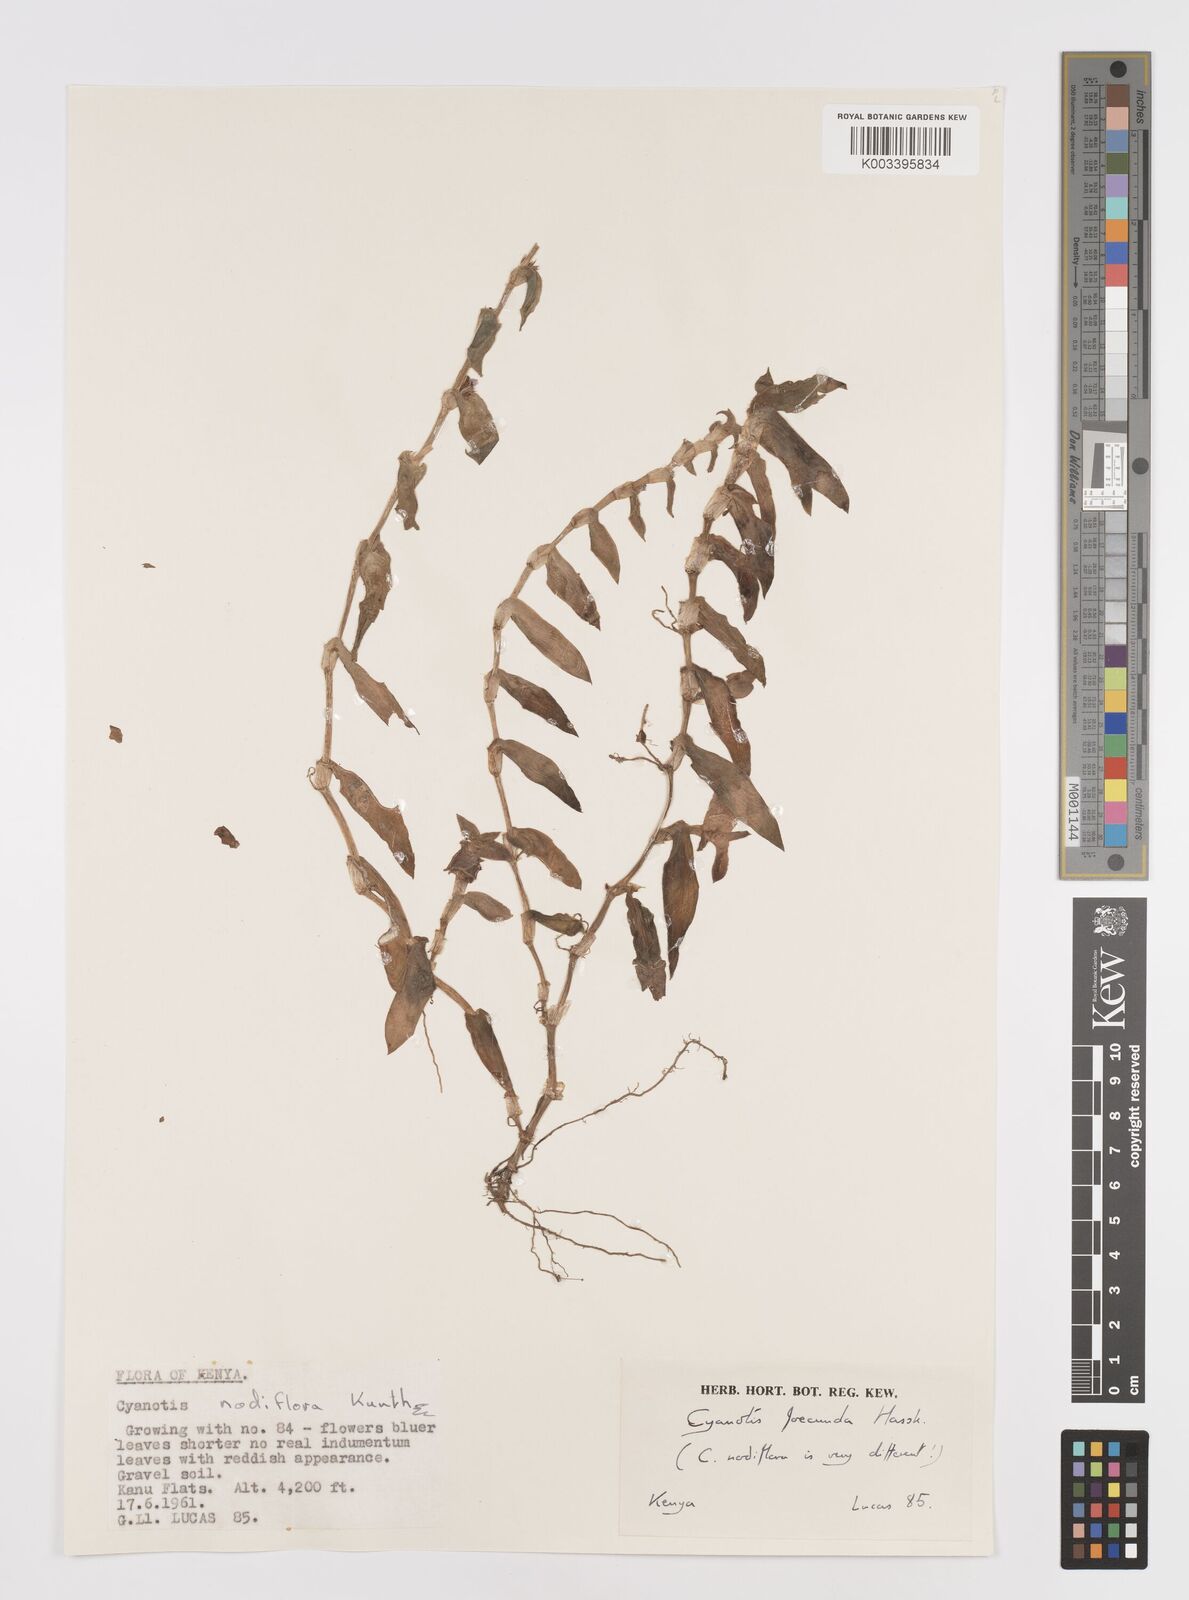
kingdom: Plantae
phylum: Tracheophyta
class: Liliopsida
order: Commelinales
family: Commelinaceae
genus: Cyanotis
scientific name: Cyanotis foecunda
